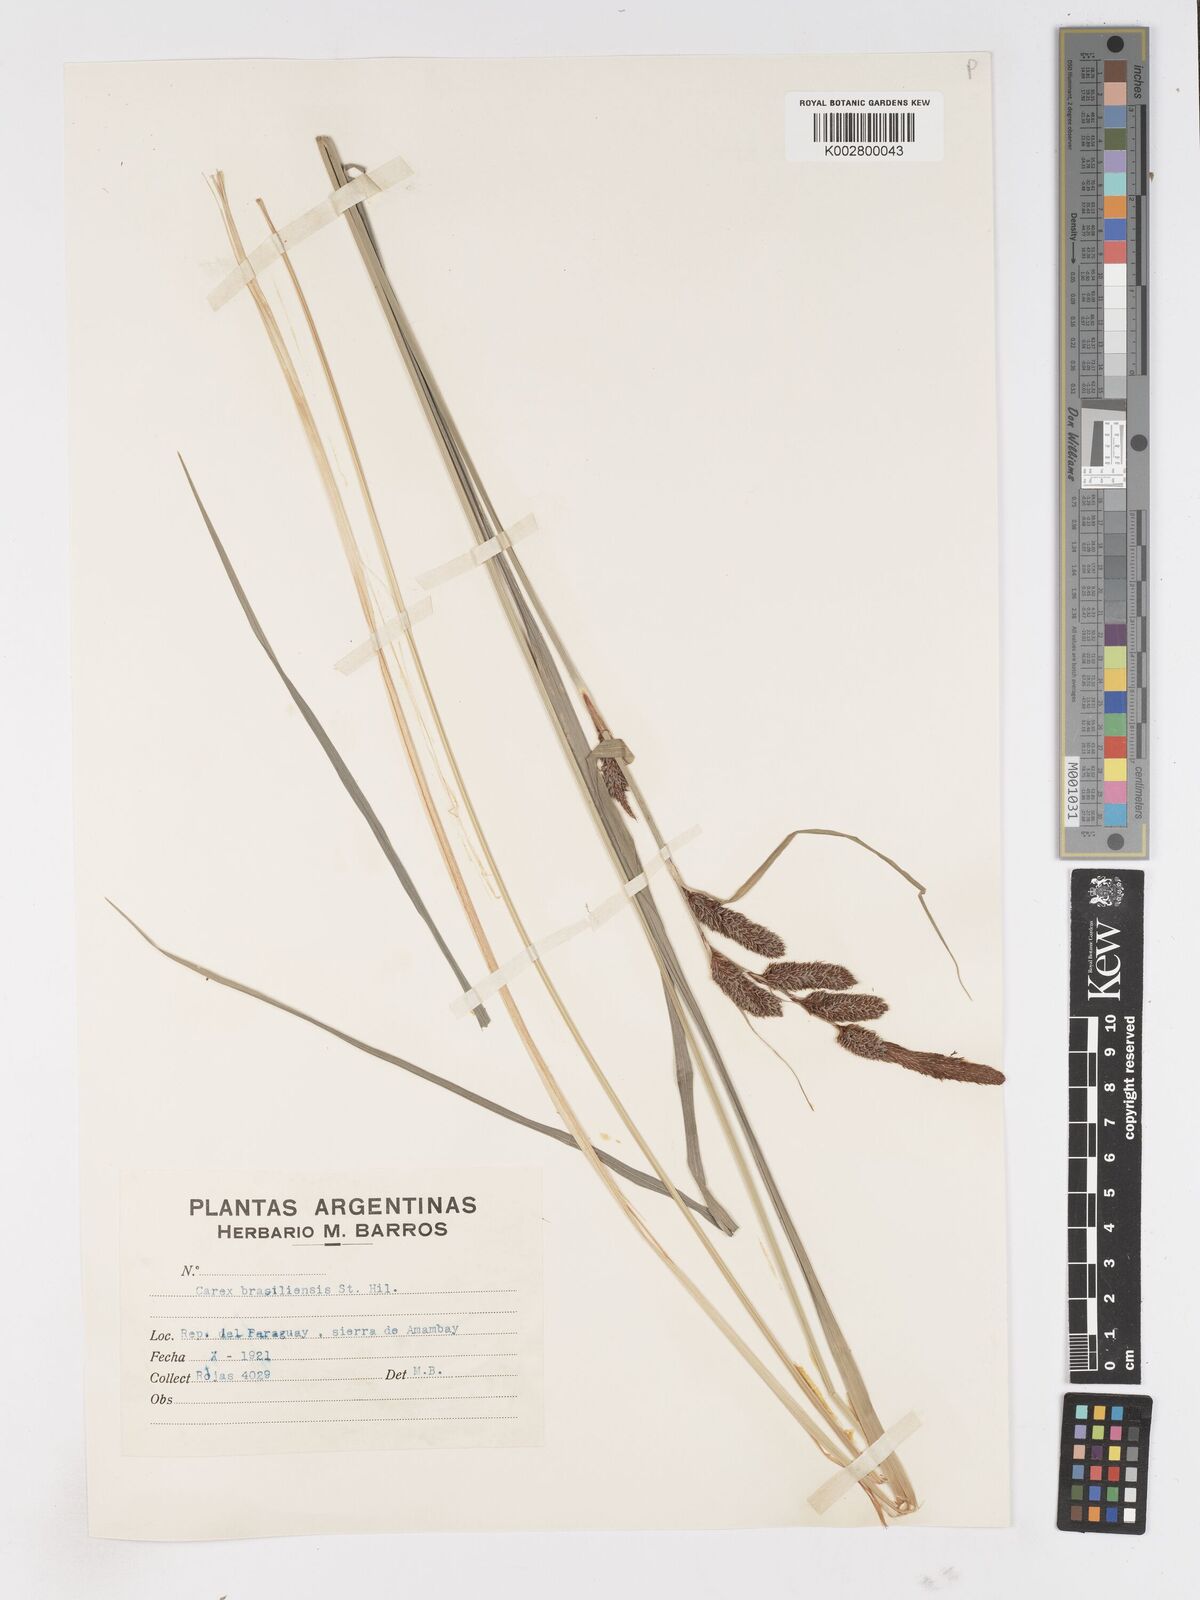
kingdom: Plantae
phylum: Tracheophyta
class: Liliopsida
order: Poales
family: Cyperaceae
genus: Carex
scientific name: Carex brasiliensis
